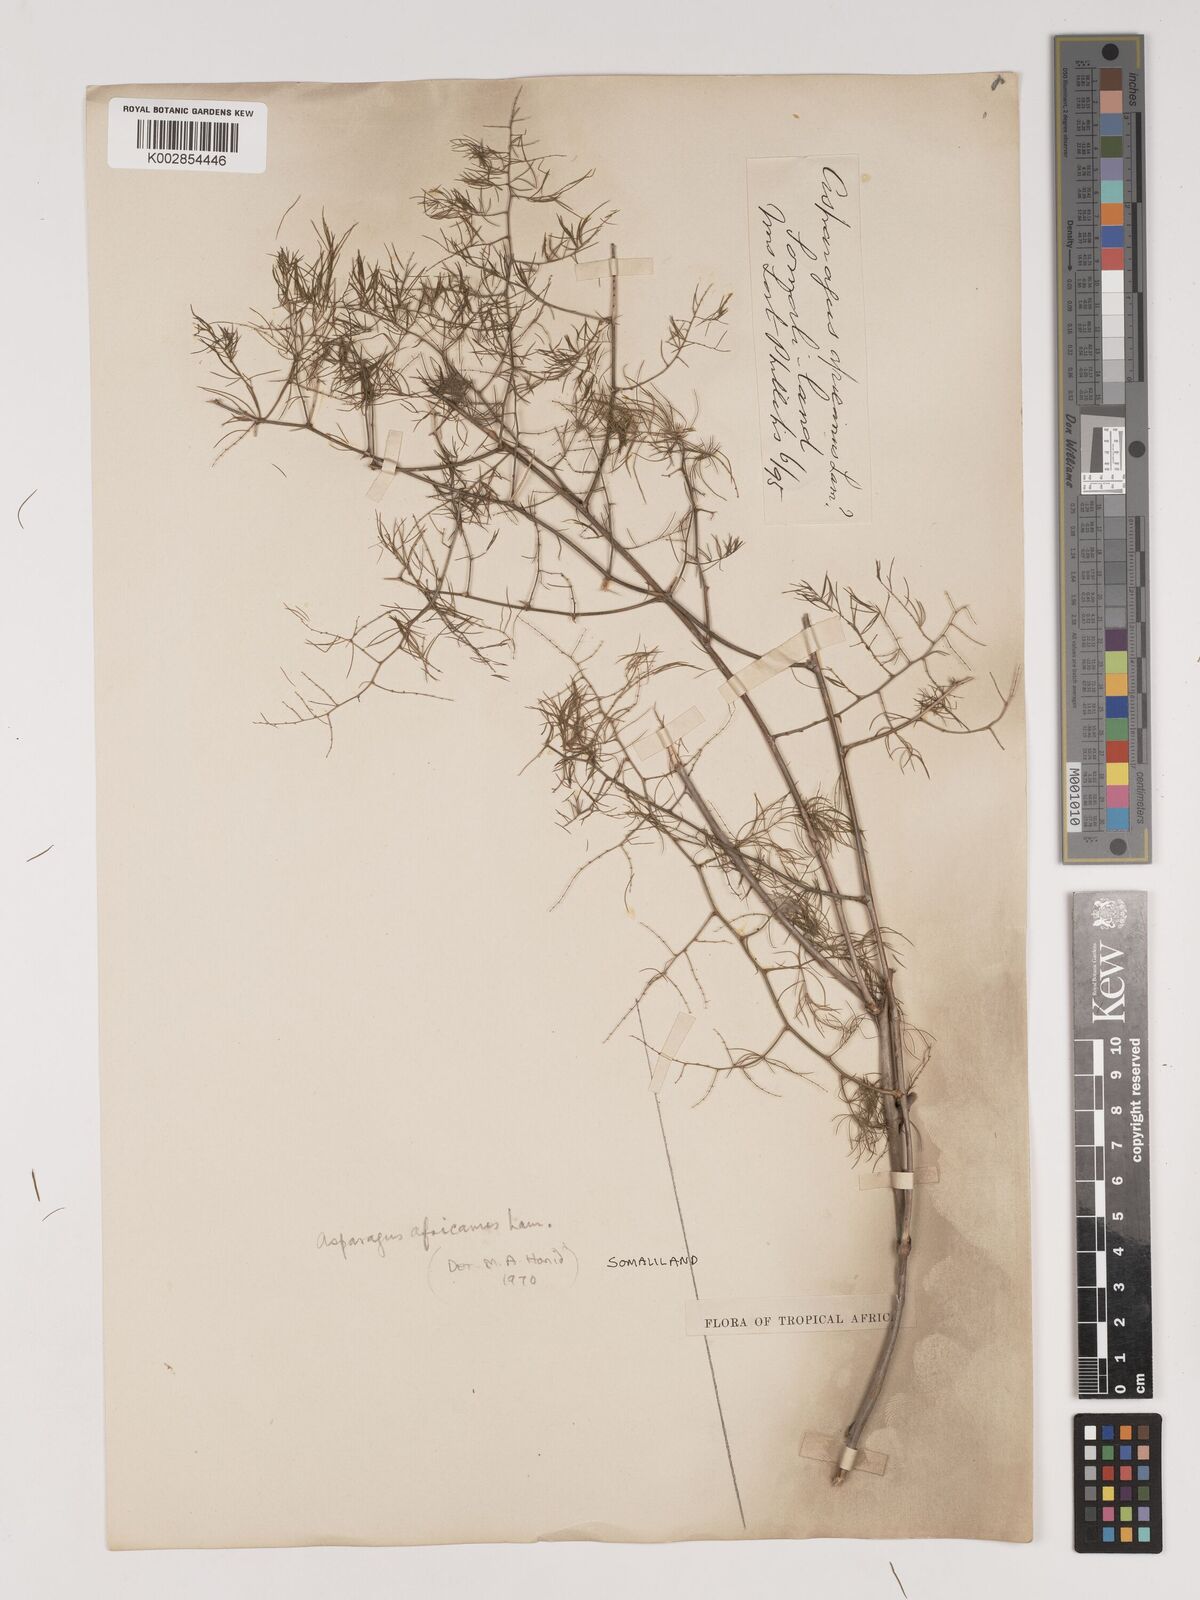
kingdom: Plantae
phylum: Tracheophyta
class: Liliopsida
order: Asparagales
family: Asparagaceae
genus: Asparagus
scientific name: Asparagus
